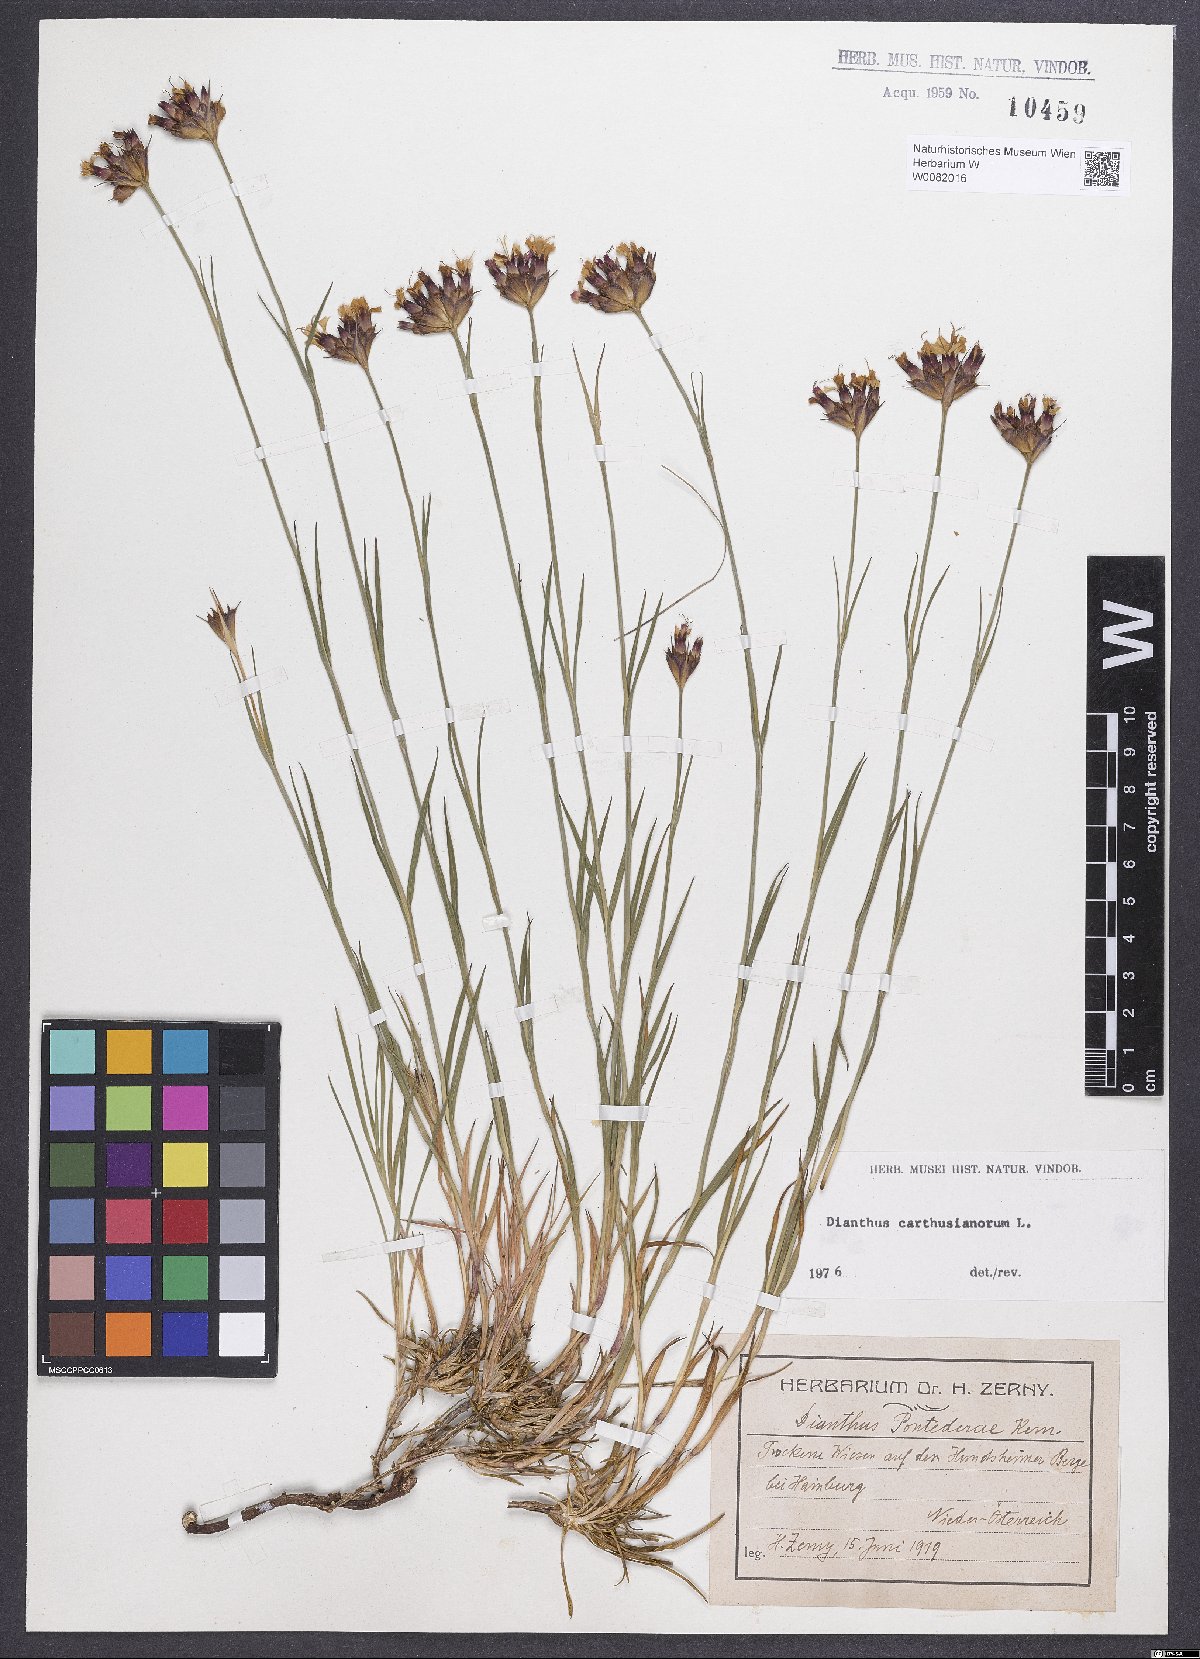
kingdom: Plantae
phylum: Tracheophyta
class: Magnoliopsida
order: Caryophyllales
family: Caryophyllaceae
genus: Dianthus
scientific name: Dianthus carthusianorum
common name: Carthusian pink
